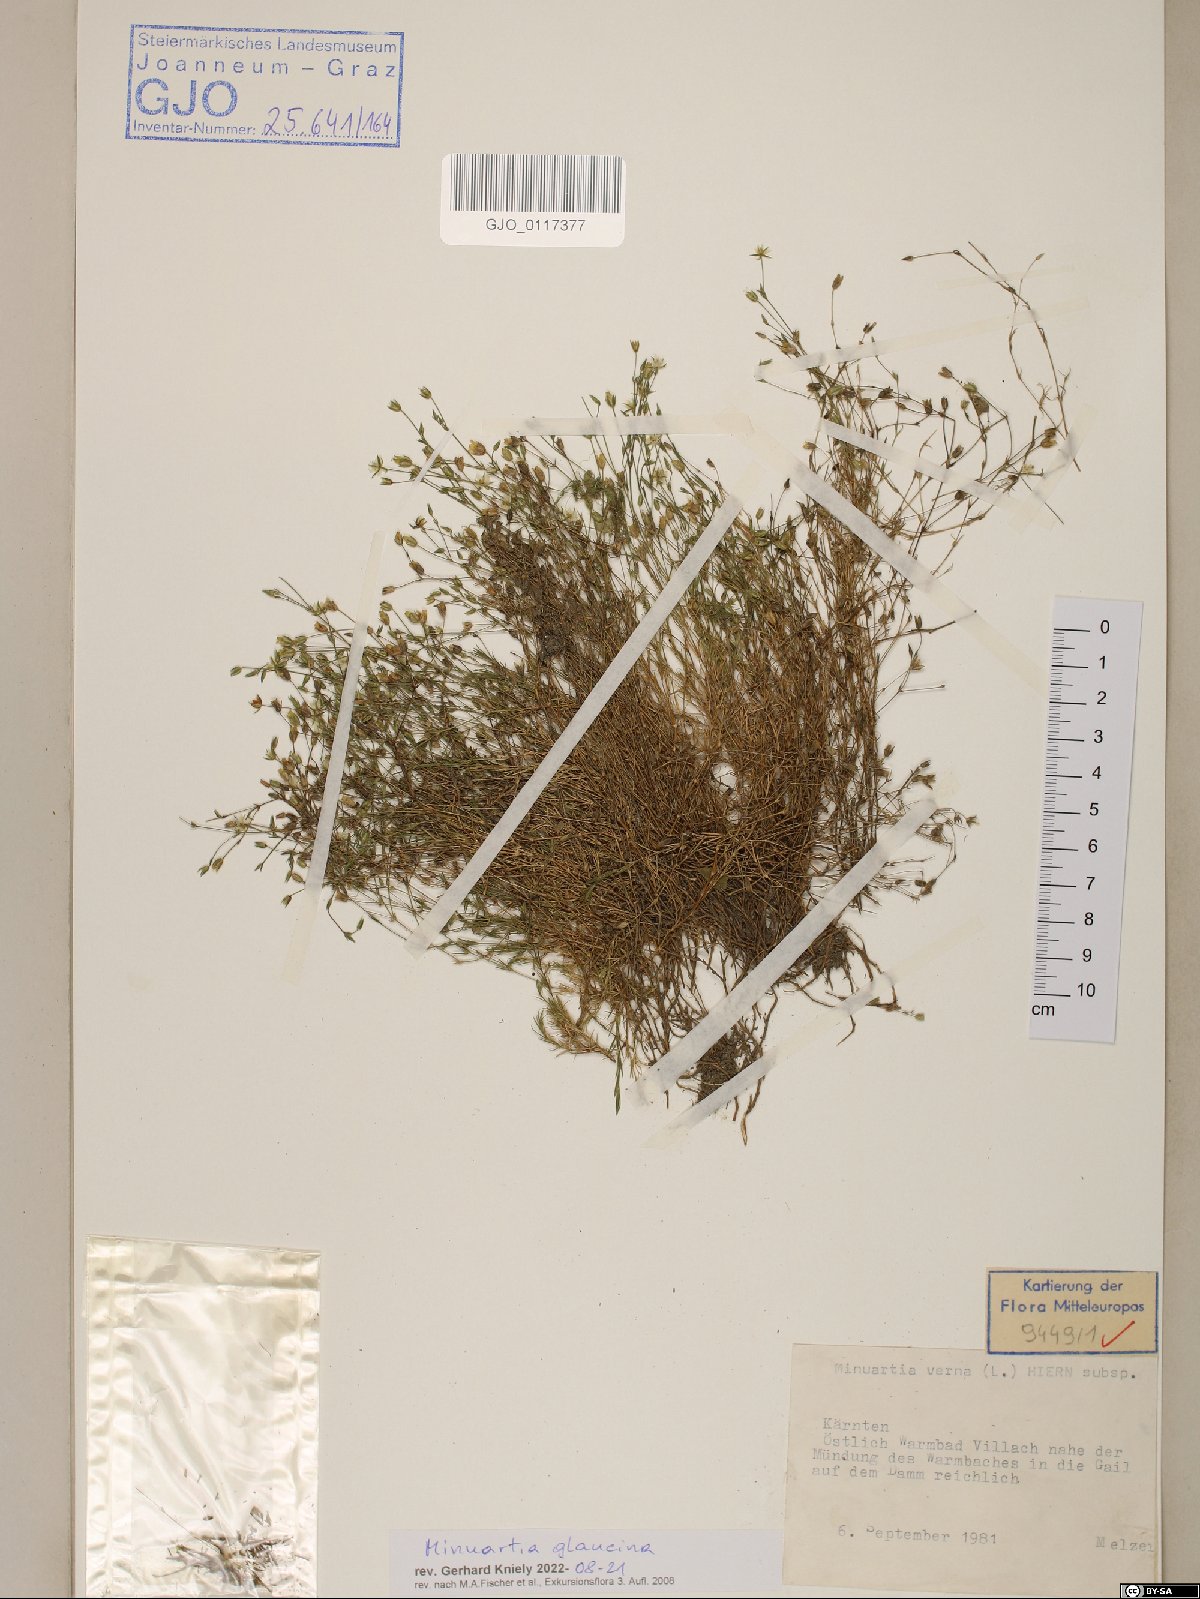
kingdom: Plantae
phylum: Tracheophyta
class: Magnoliopsida
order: Caryophyllales
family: Caryophyllaceae
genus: Sabulina
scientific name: Sabulina glaucina
